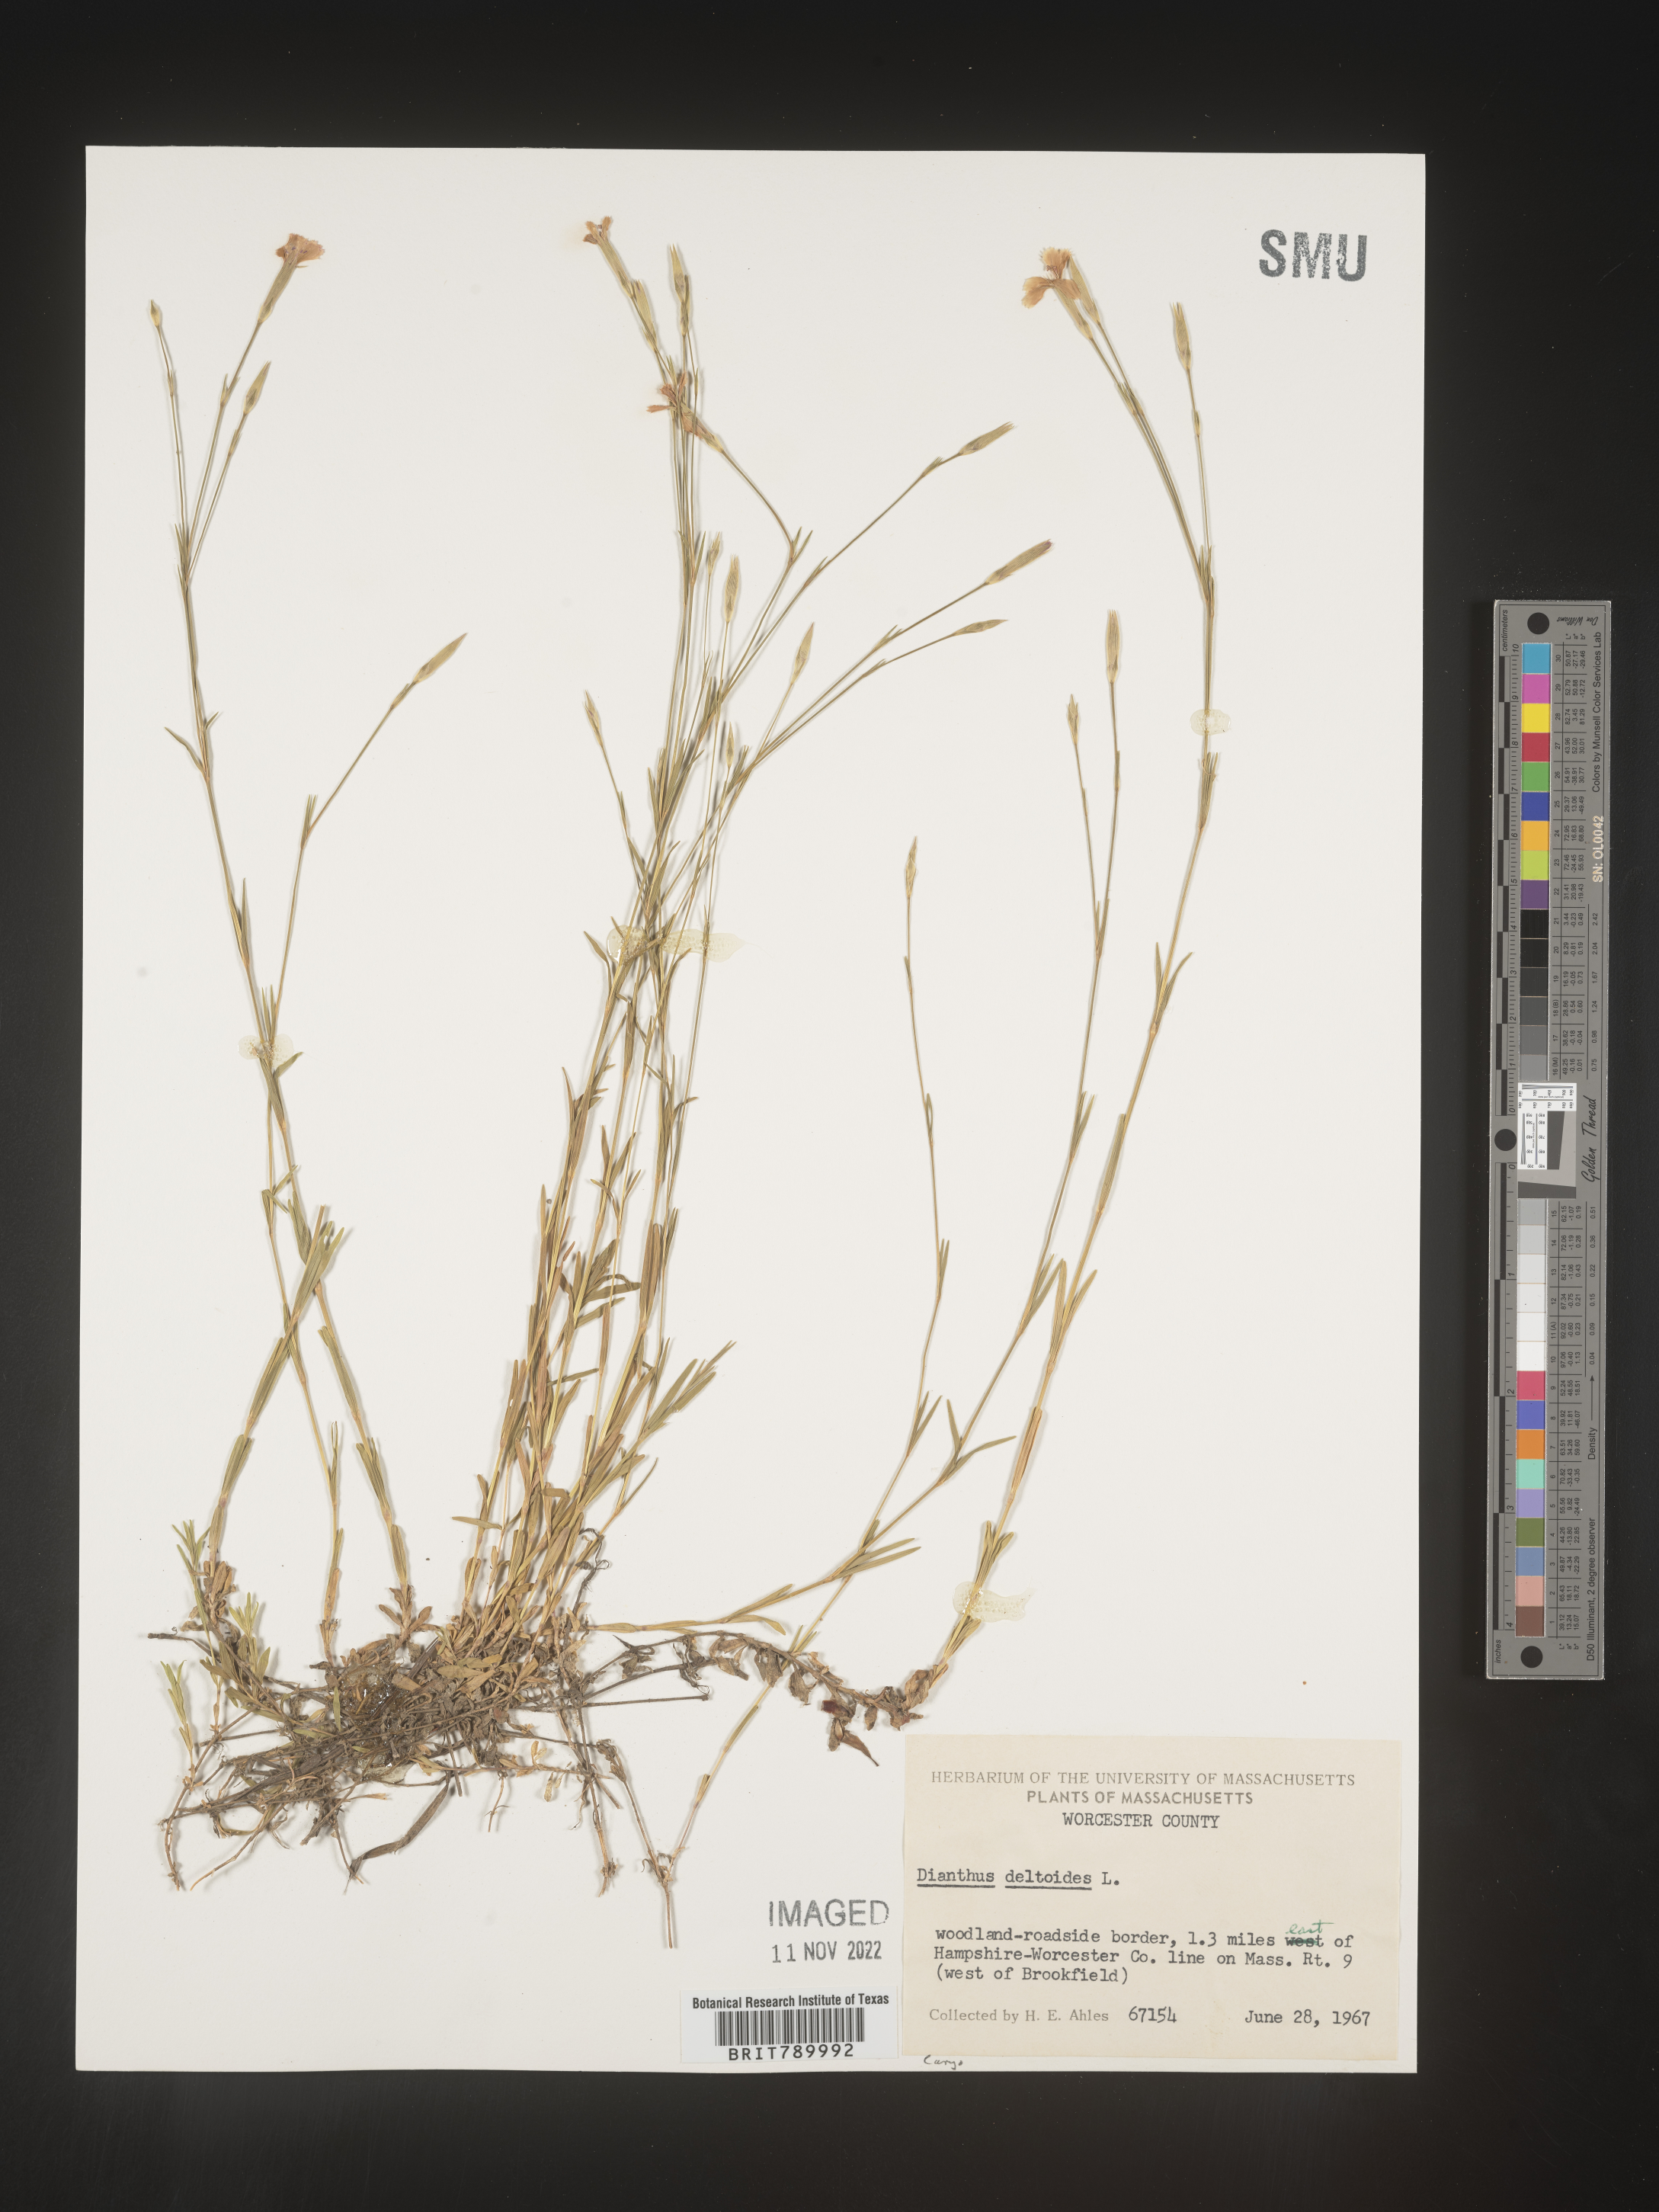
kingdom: Plantae
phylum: Tracheophyta
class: Magnoliopsida
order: Caryophyllales
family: Caryophyllaceae
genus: Dianthus
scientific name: Dianthus deltoides
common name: Maiden pink
